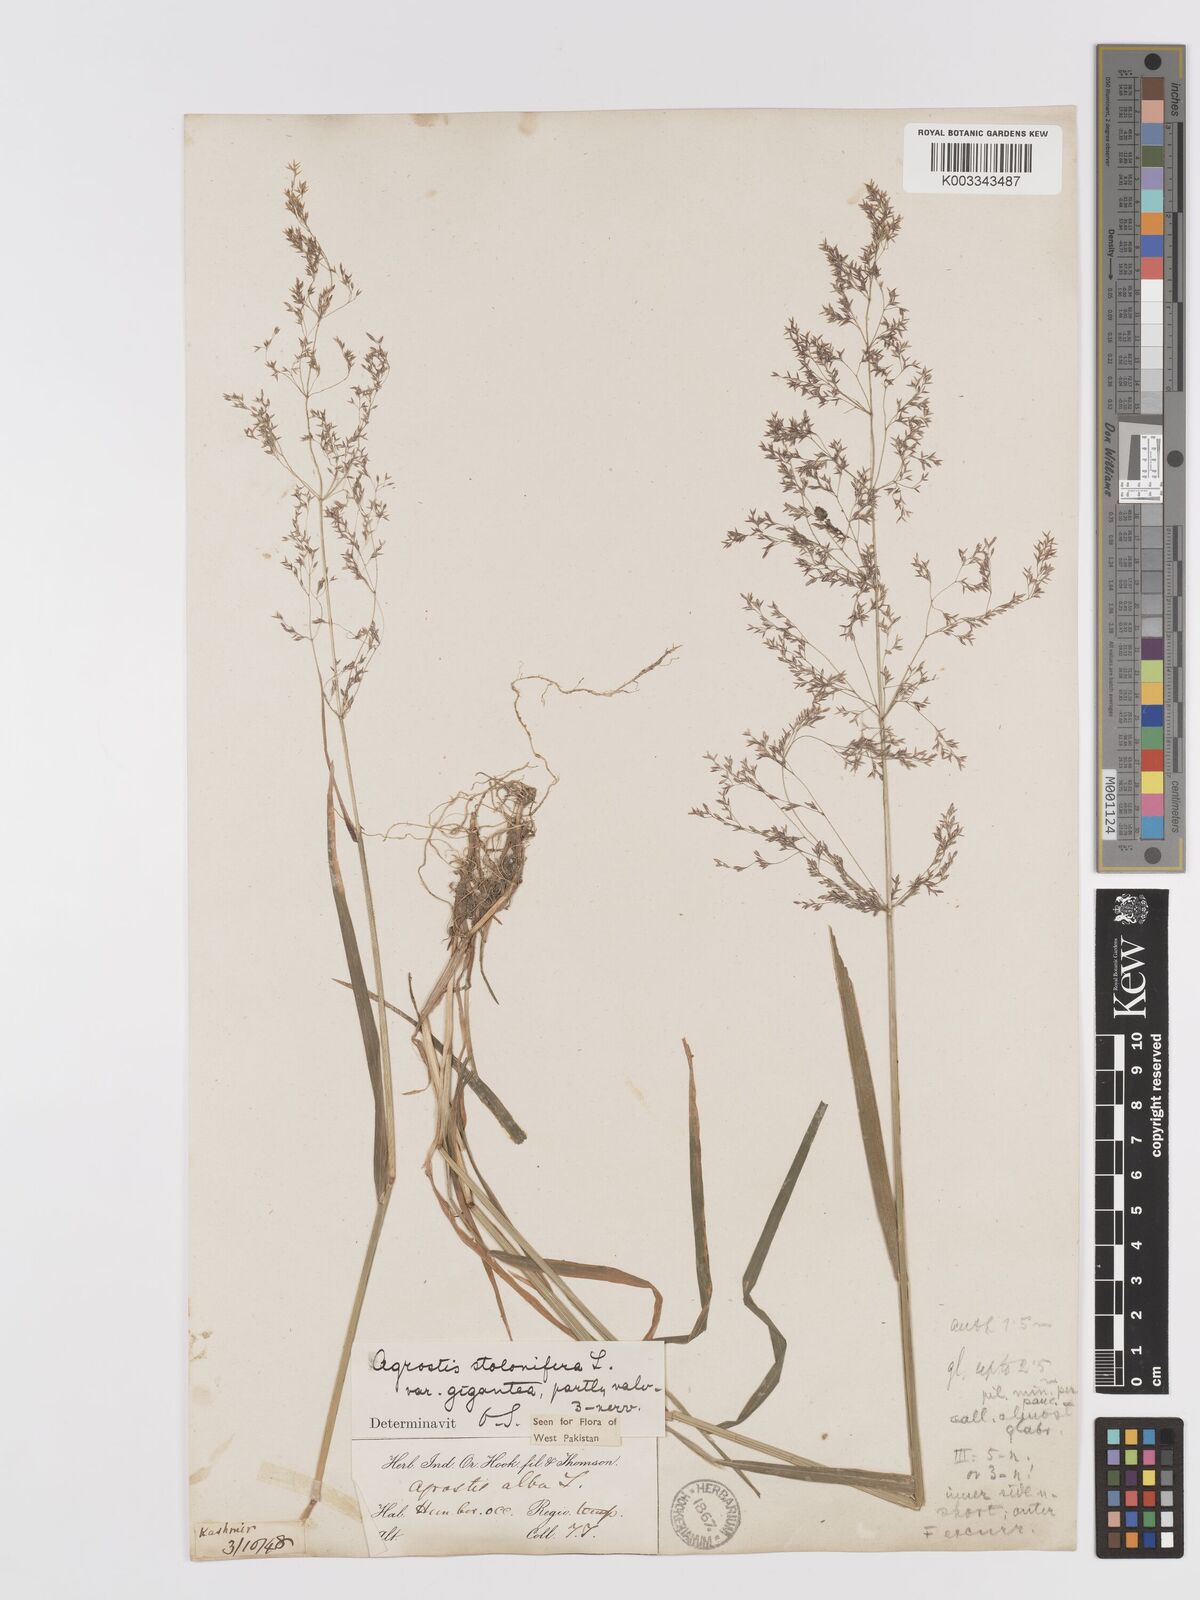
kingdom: Plantae
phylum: Tracheophyta
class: Liliopsida
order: Poales
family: Poaceae
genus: Agrostis
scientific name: Agrostis gigantea
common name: Black bent
